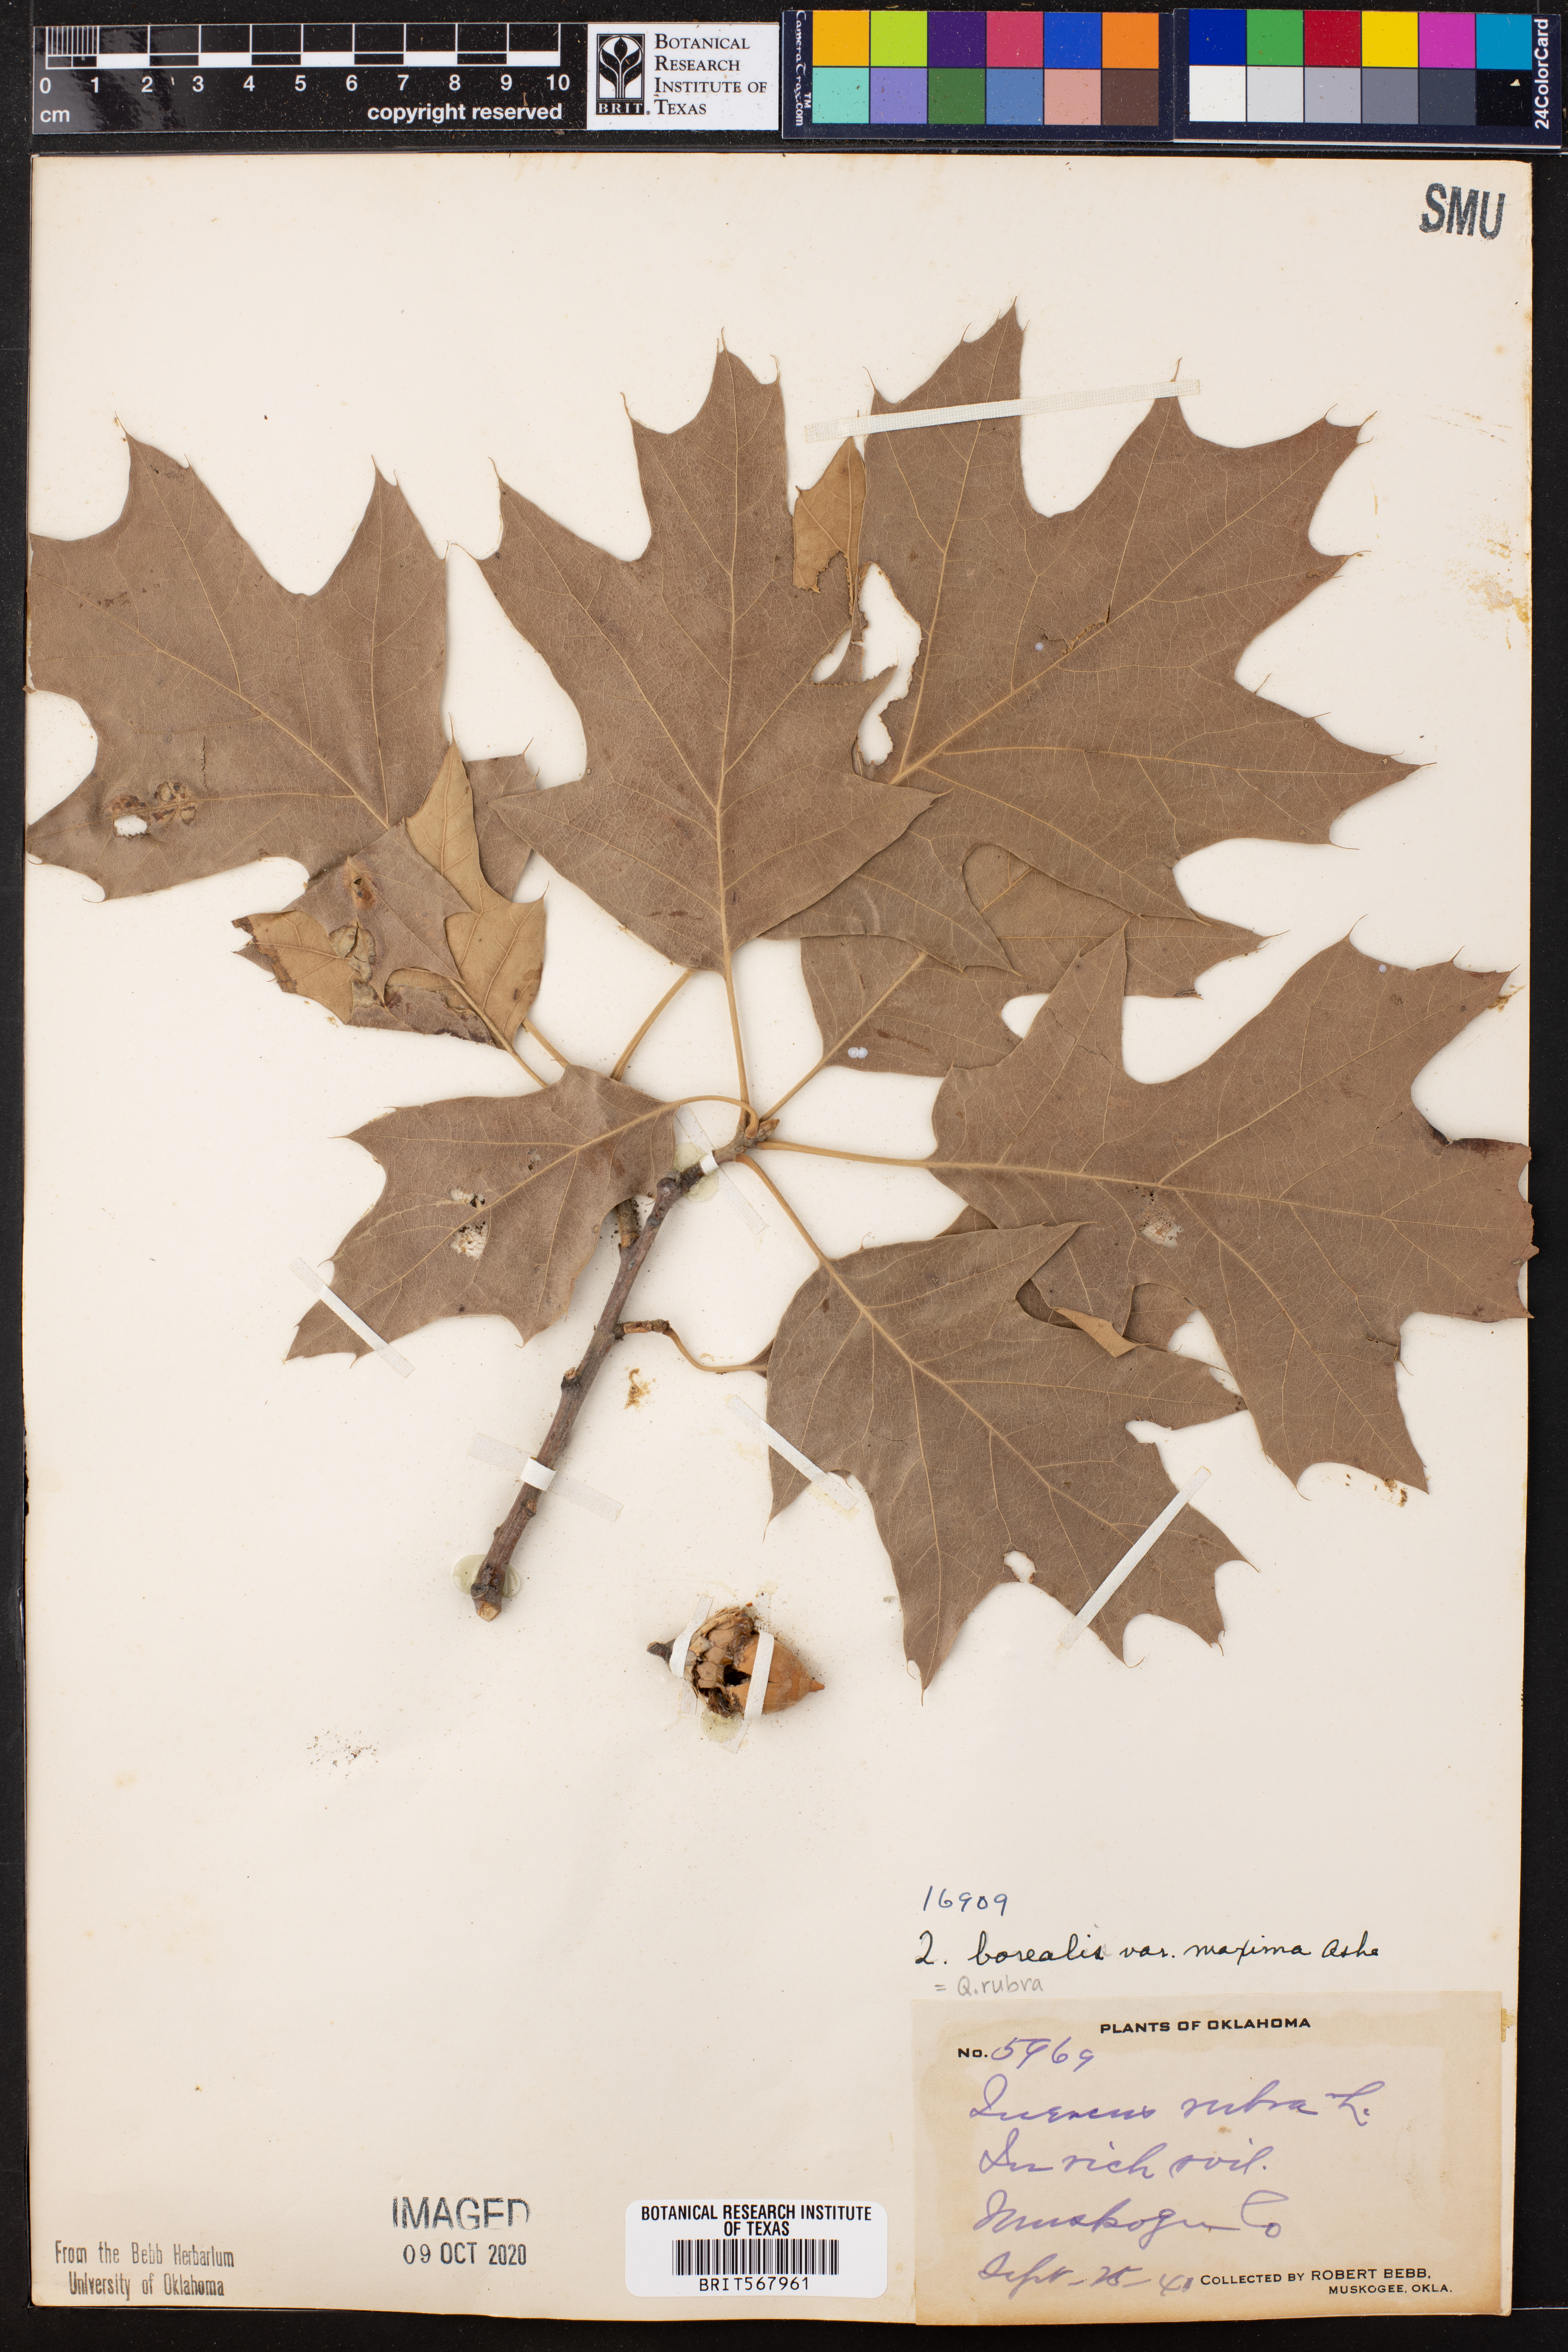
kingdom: Plantae
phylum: Tracheophyta
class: Magnoliopsida
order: Fagales
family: Fagaceae
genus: Quercus
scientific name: Quercus rubra
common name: Red oak
